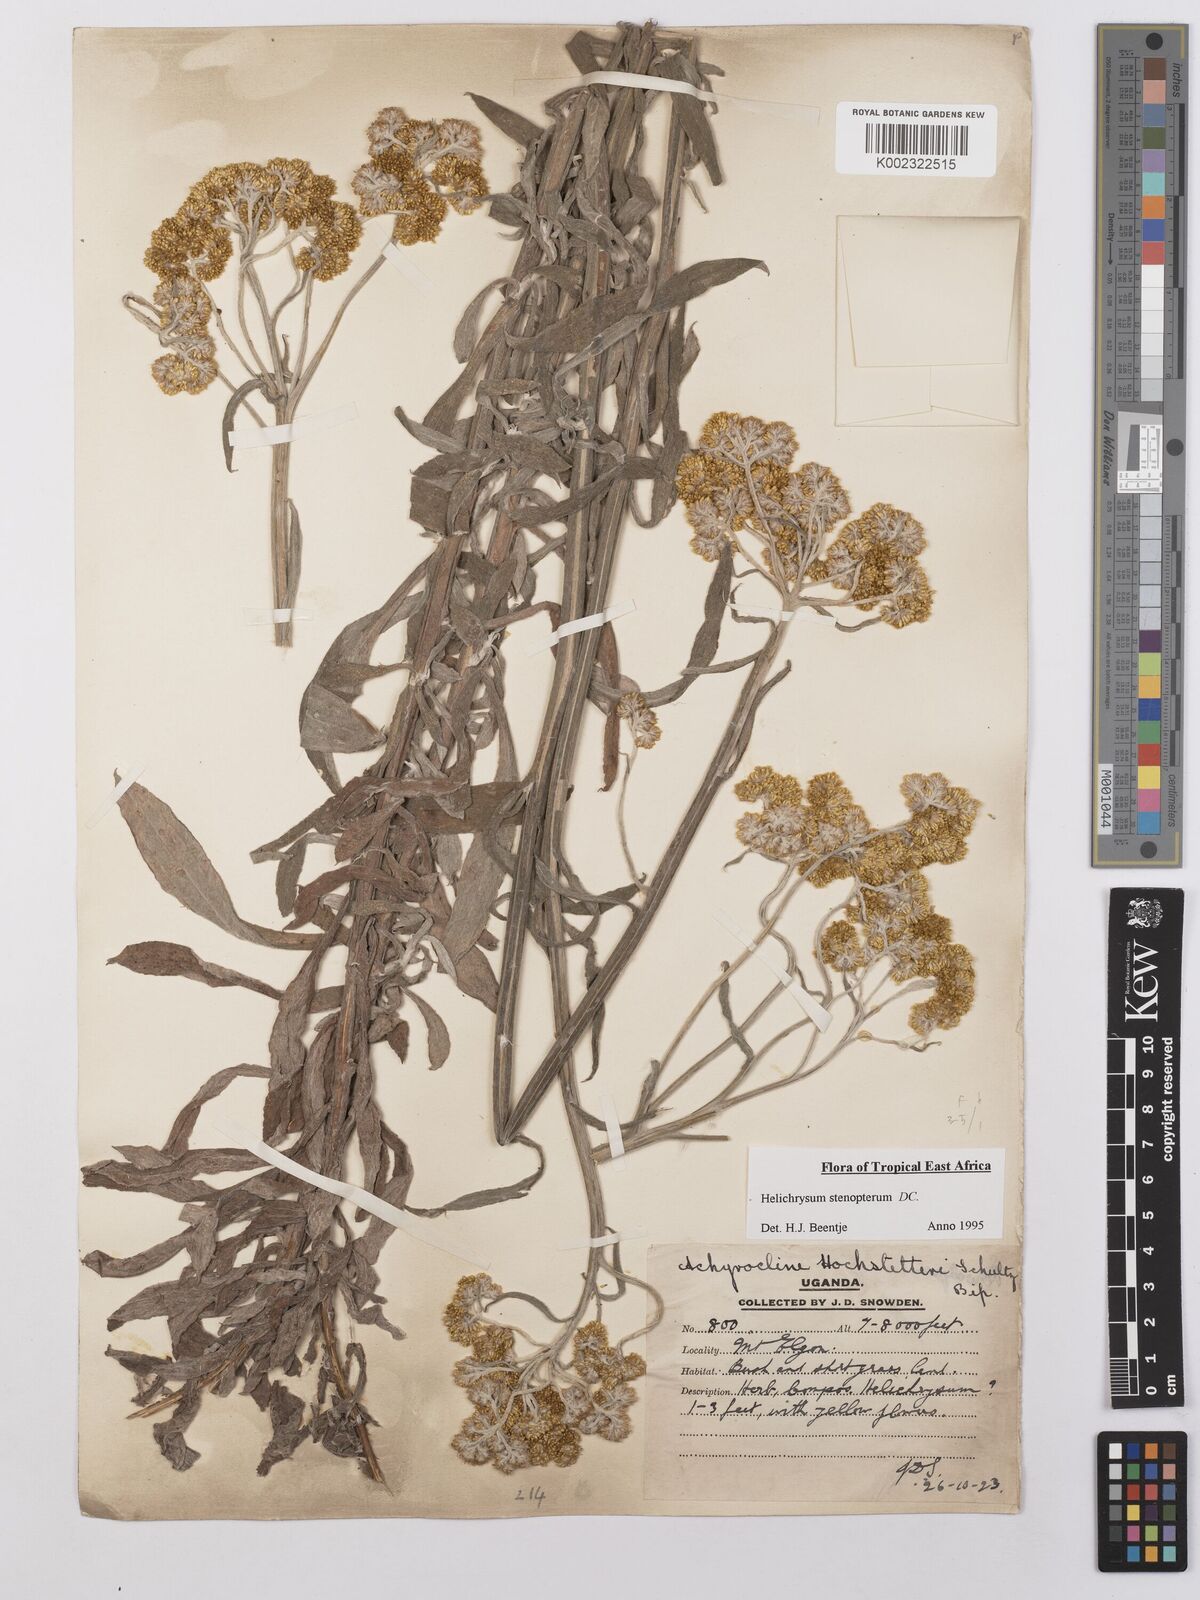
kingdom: Plantae
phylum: Tracheophyta
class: Magnoliopsida
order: Asterales
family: Asteraceae
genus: Helichrysum
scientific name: Helichrysum stenopterum
